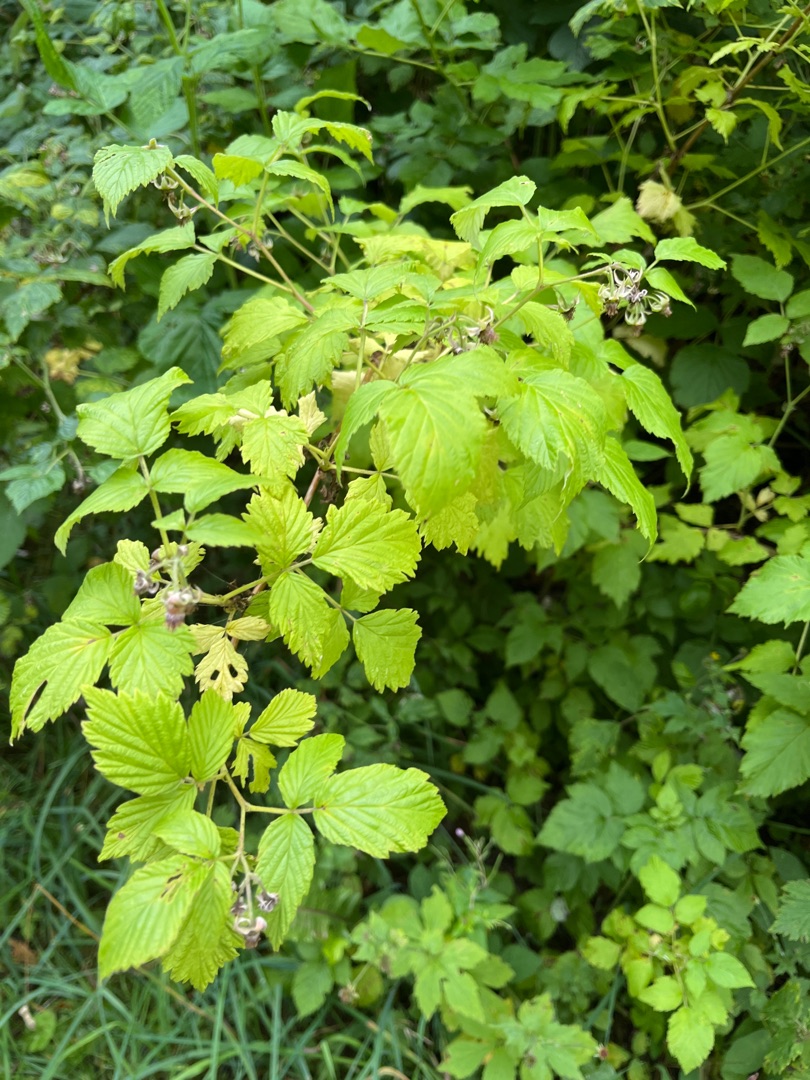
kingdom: Plantae
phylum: Tracheophyta
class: Magnoliopsida
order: Rosales
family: Rosaceae
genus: Rubus
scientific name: Rubus idaeus
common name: Hindbær
